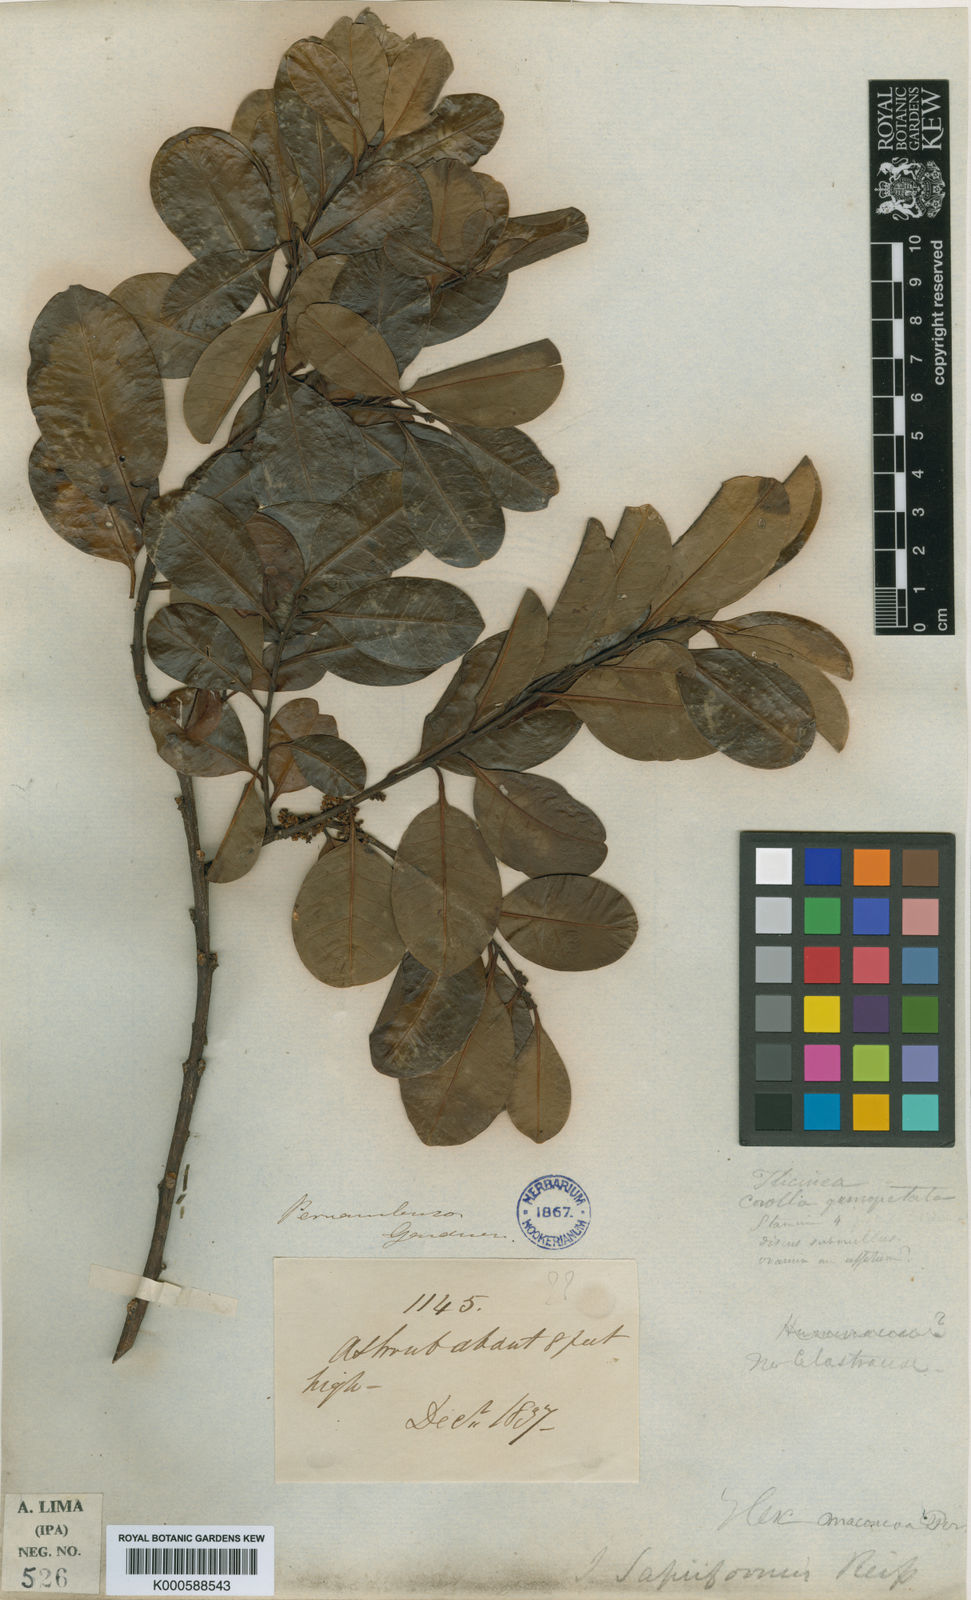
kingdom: Plantae
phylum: Tracheophyta
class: Magnoliopsida
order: Aquifoliales
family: Aquifoliaceae
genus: Ilex
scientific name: Ilex sapiiformis
